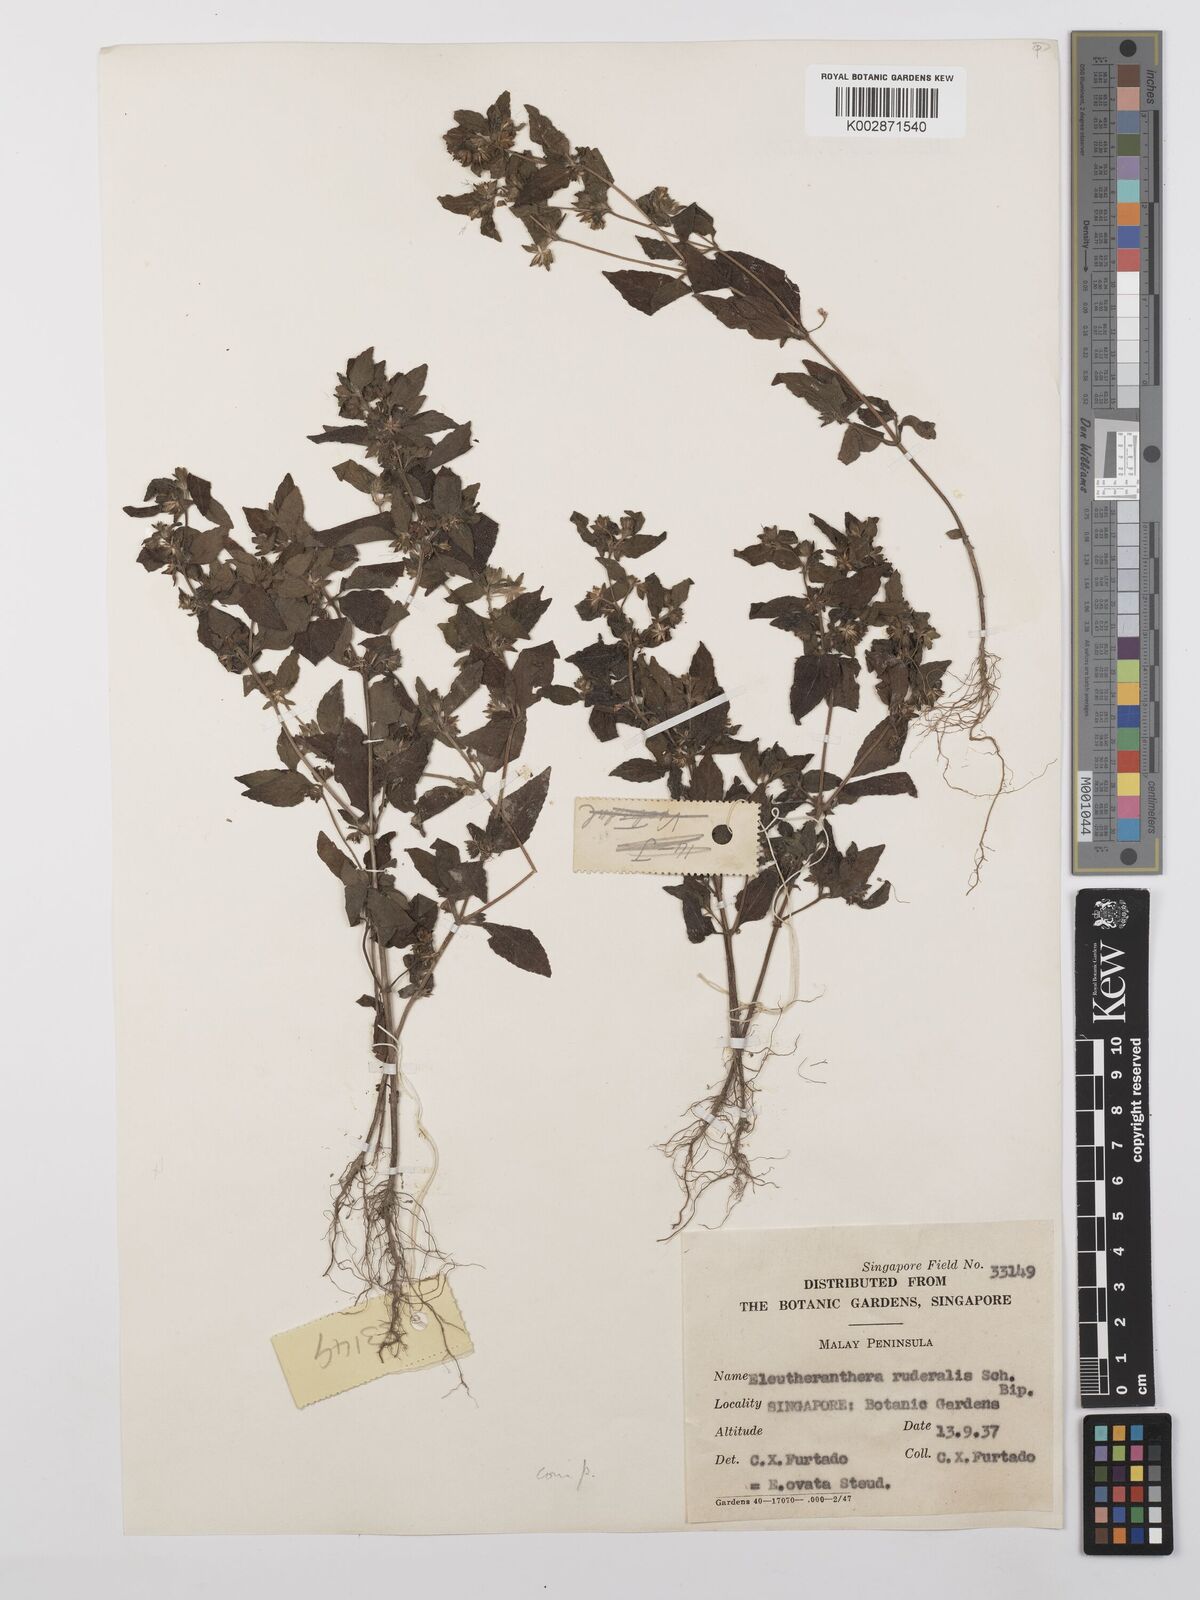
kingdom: Plantae
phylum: Tracheophyta
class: Magnoliopsida
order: Asterales
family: Asteraceae
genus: Eleutheranthera
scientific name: Eleutheranthera ruderalis
